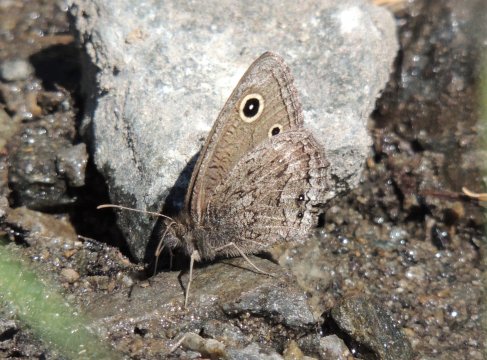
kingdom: Animalia
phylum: Arthropoda
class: Insecta
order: Lepidoptera
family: Nymphalidae
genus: Cercyonis
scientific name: Cercyonis oetus
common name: Small Wood-Nymph
